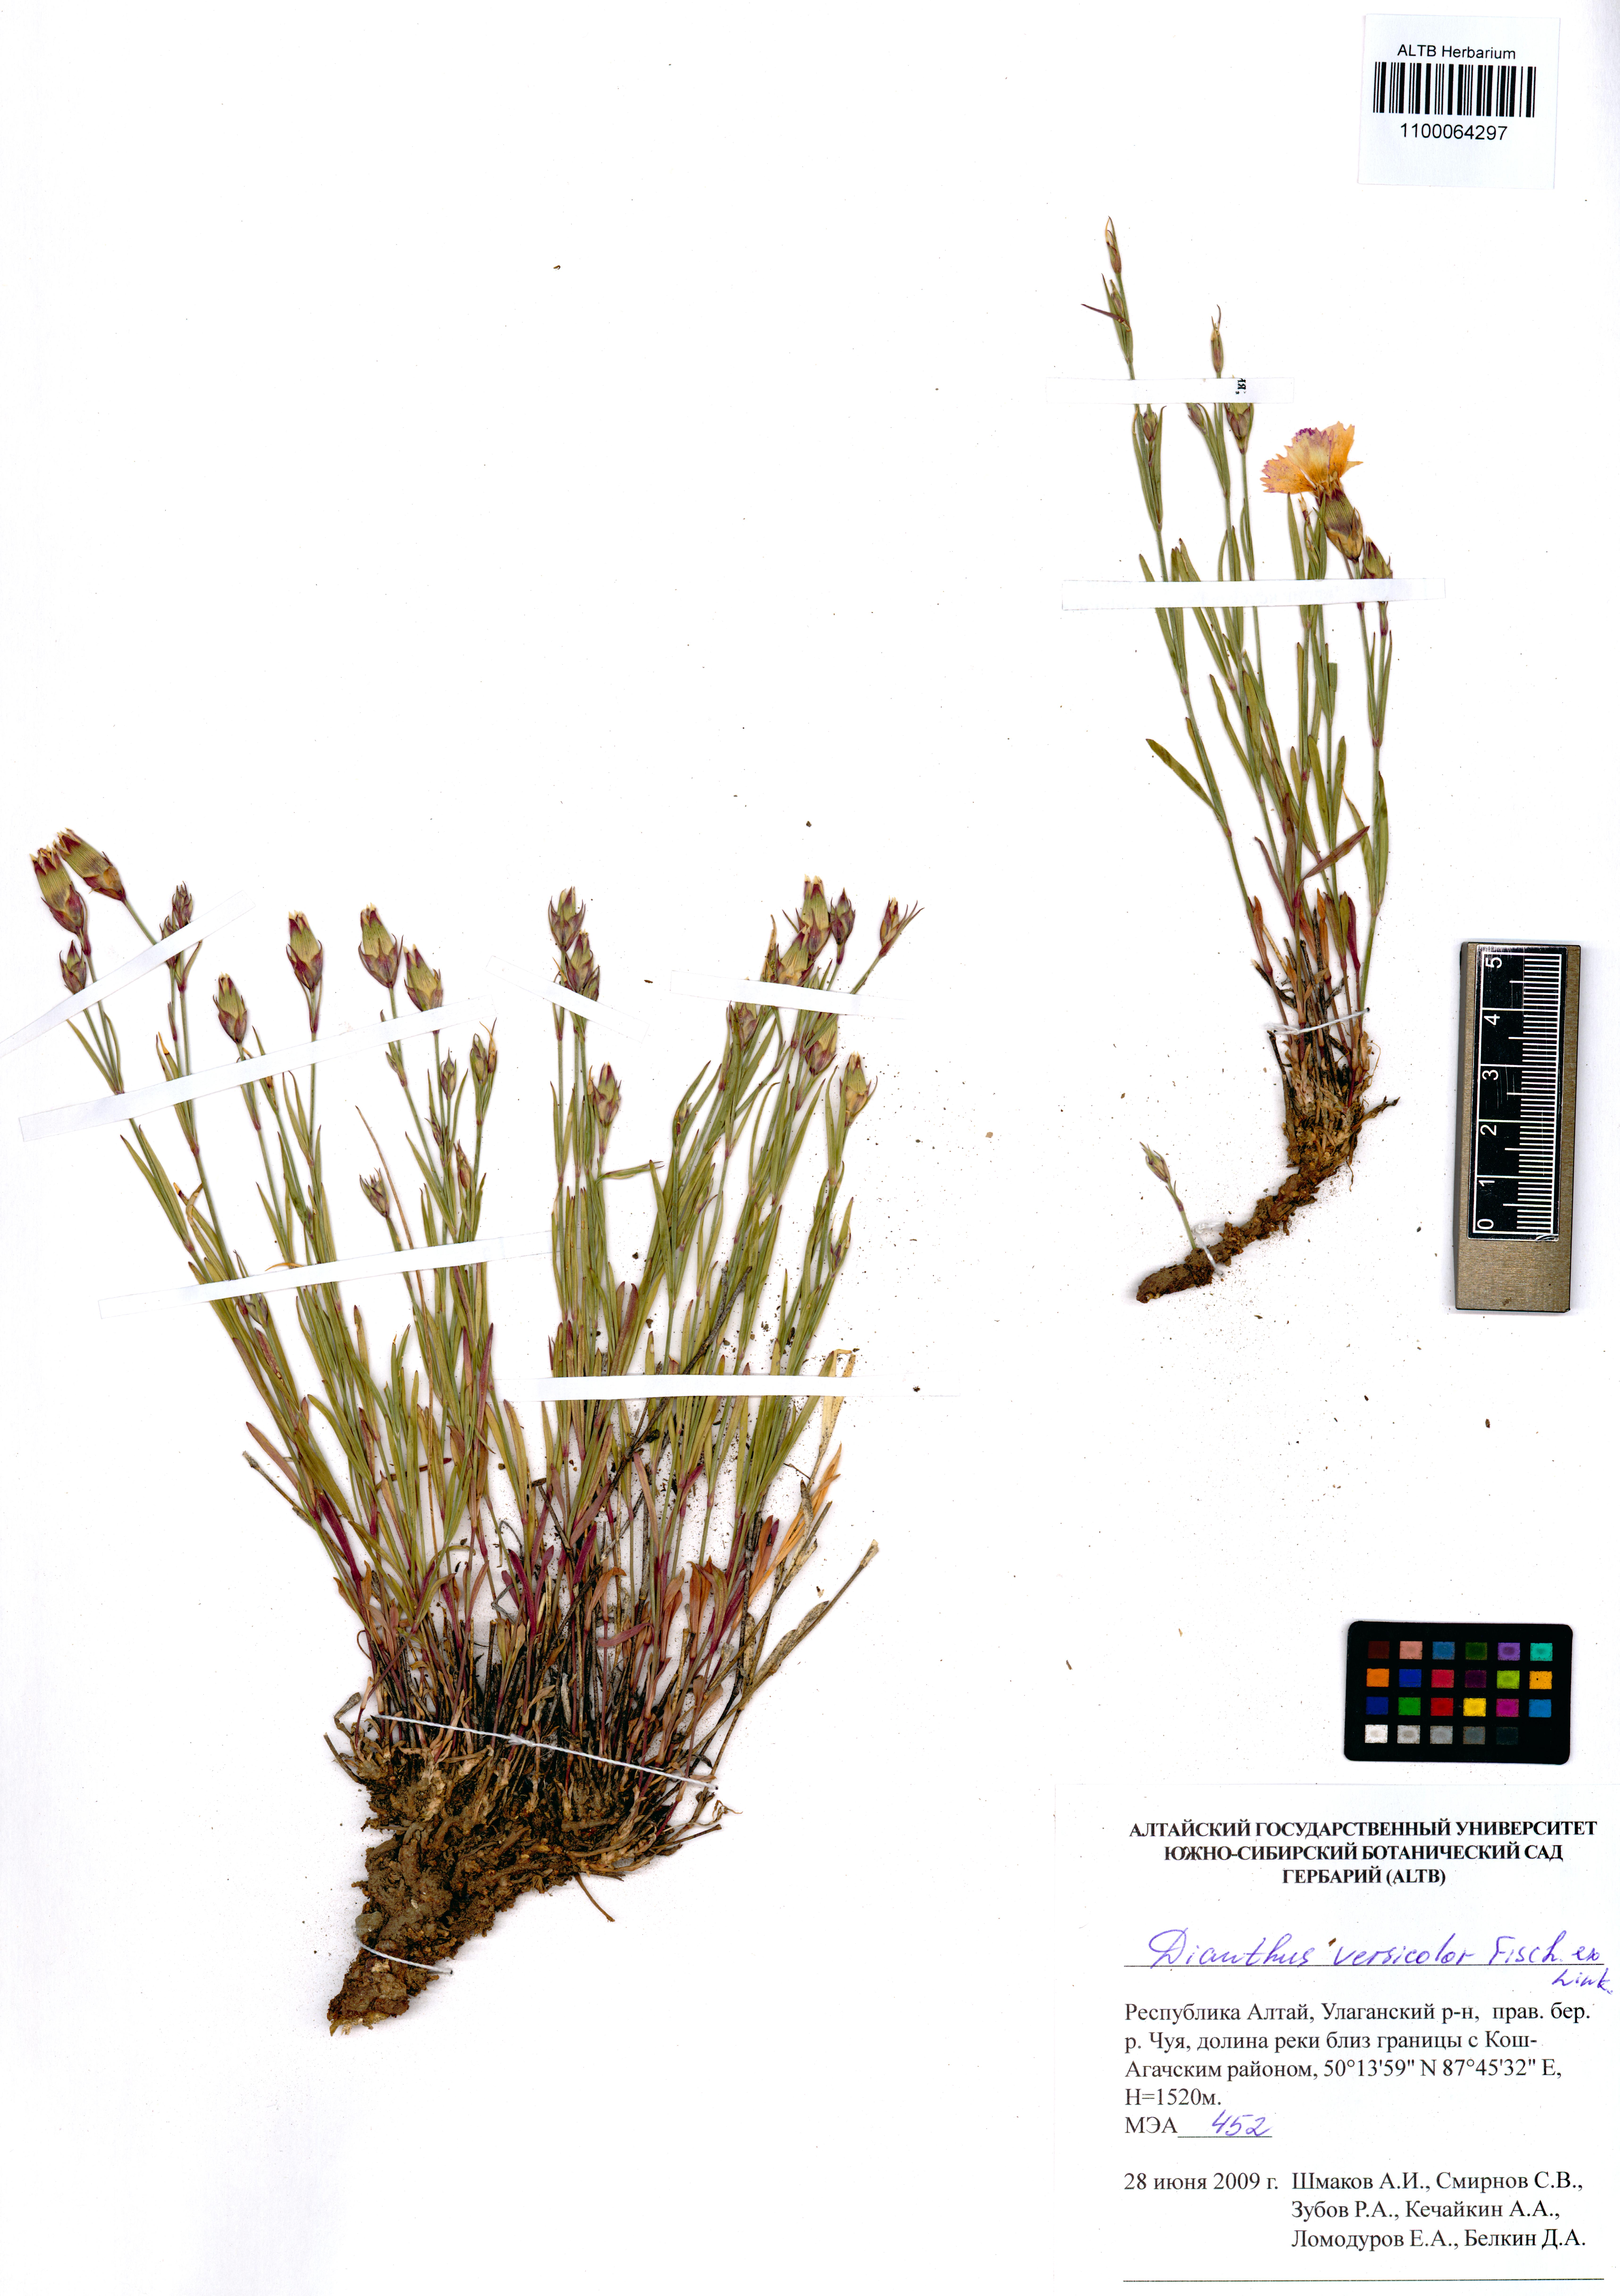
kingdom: Plantae
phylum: Tracheophyta
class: Magnoliopsida
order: Caryophyllales
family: Caryophyllaceae
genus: Dianthus
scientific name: Dianthus chinensis
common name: Rainbow pink
